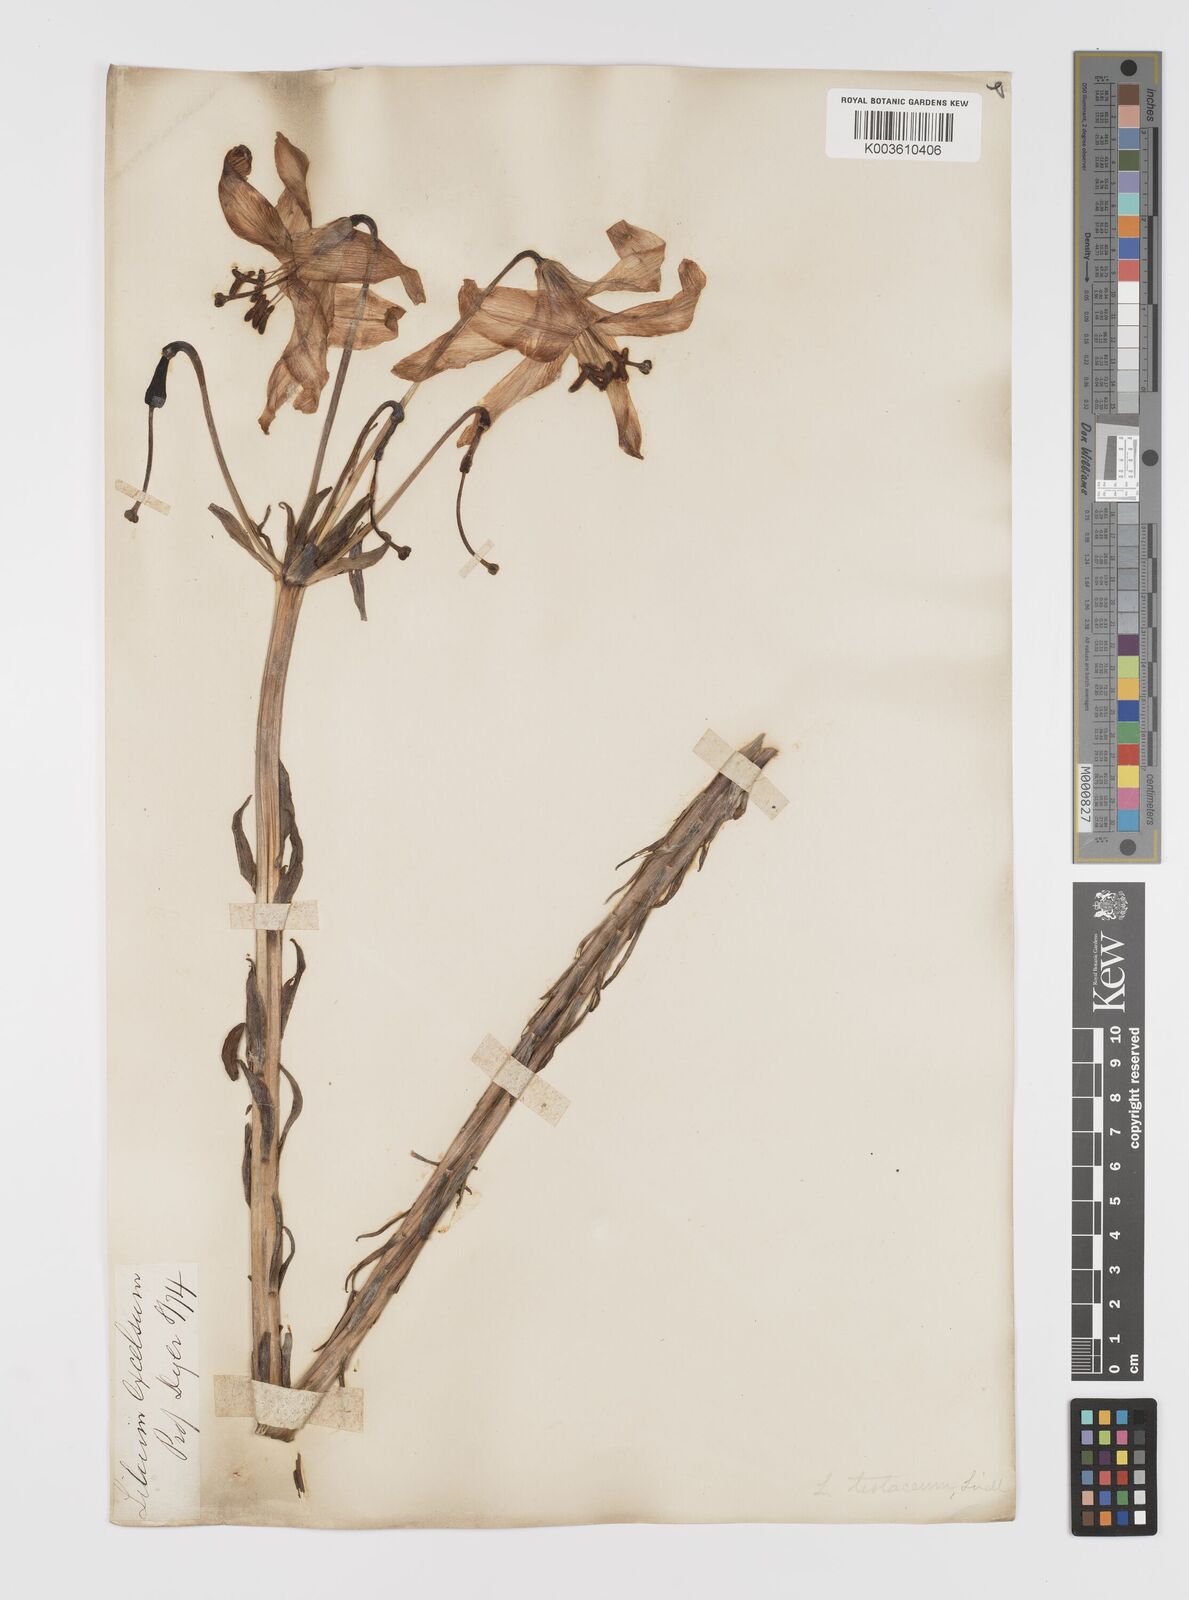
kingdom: Plantae
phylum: Tracheophyta
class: Liliopsida
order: Liliales
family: Liliaceae
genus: Lilium
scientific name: Lilium testaceum
